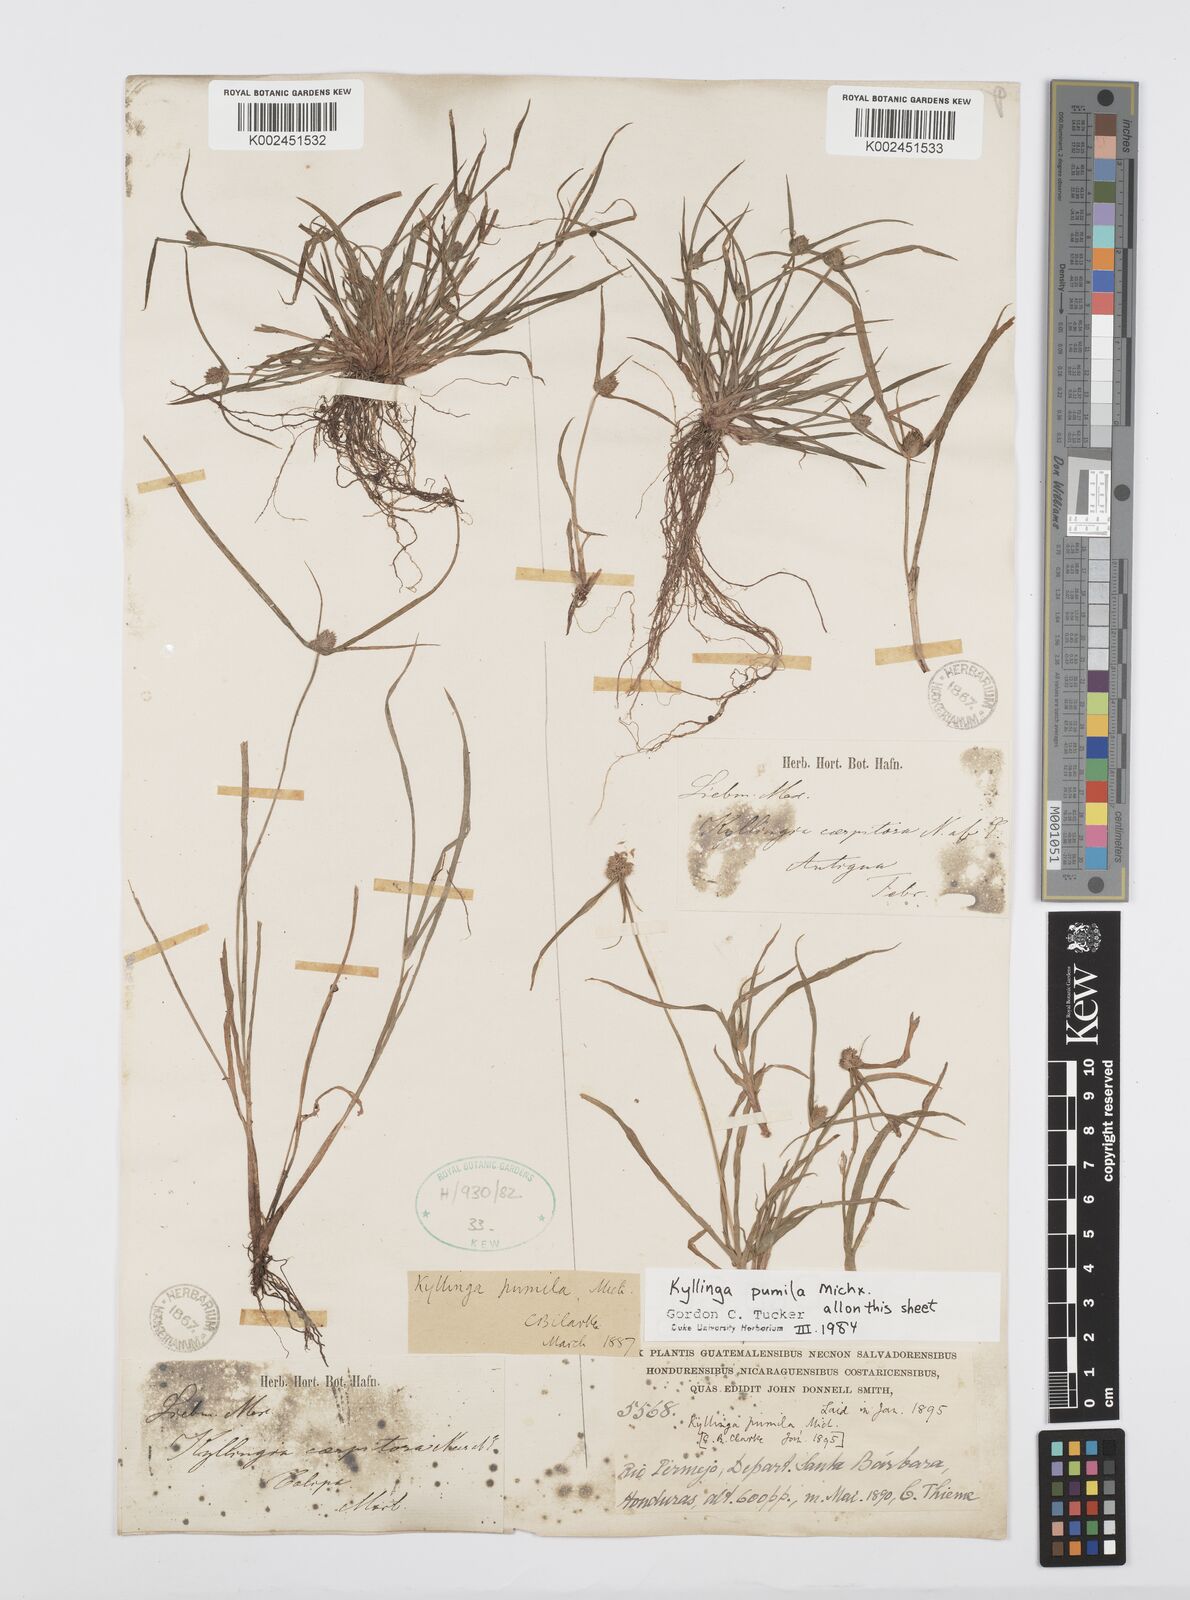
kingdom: Plantae
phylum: Tracheophyta
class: Liliopsida
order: Poales
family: Cyperaceae
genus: Cyperus
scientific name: Cyperus
